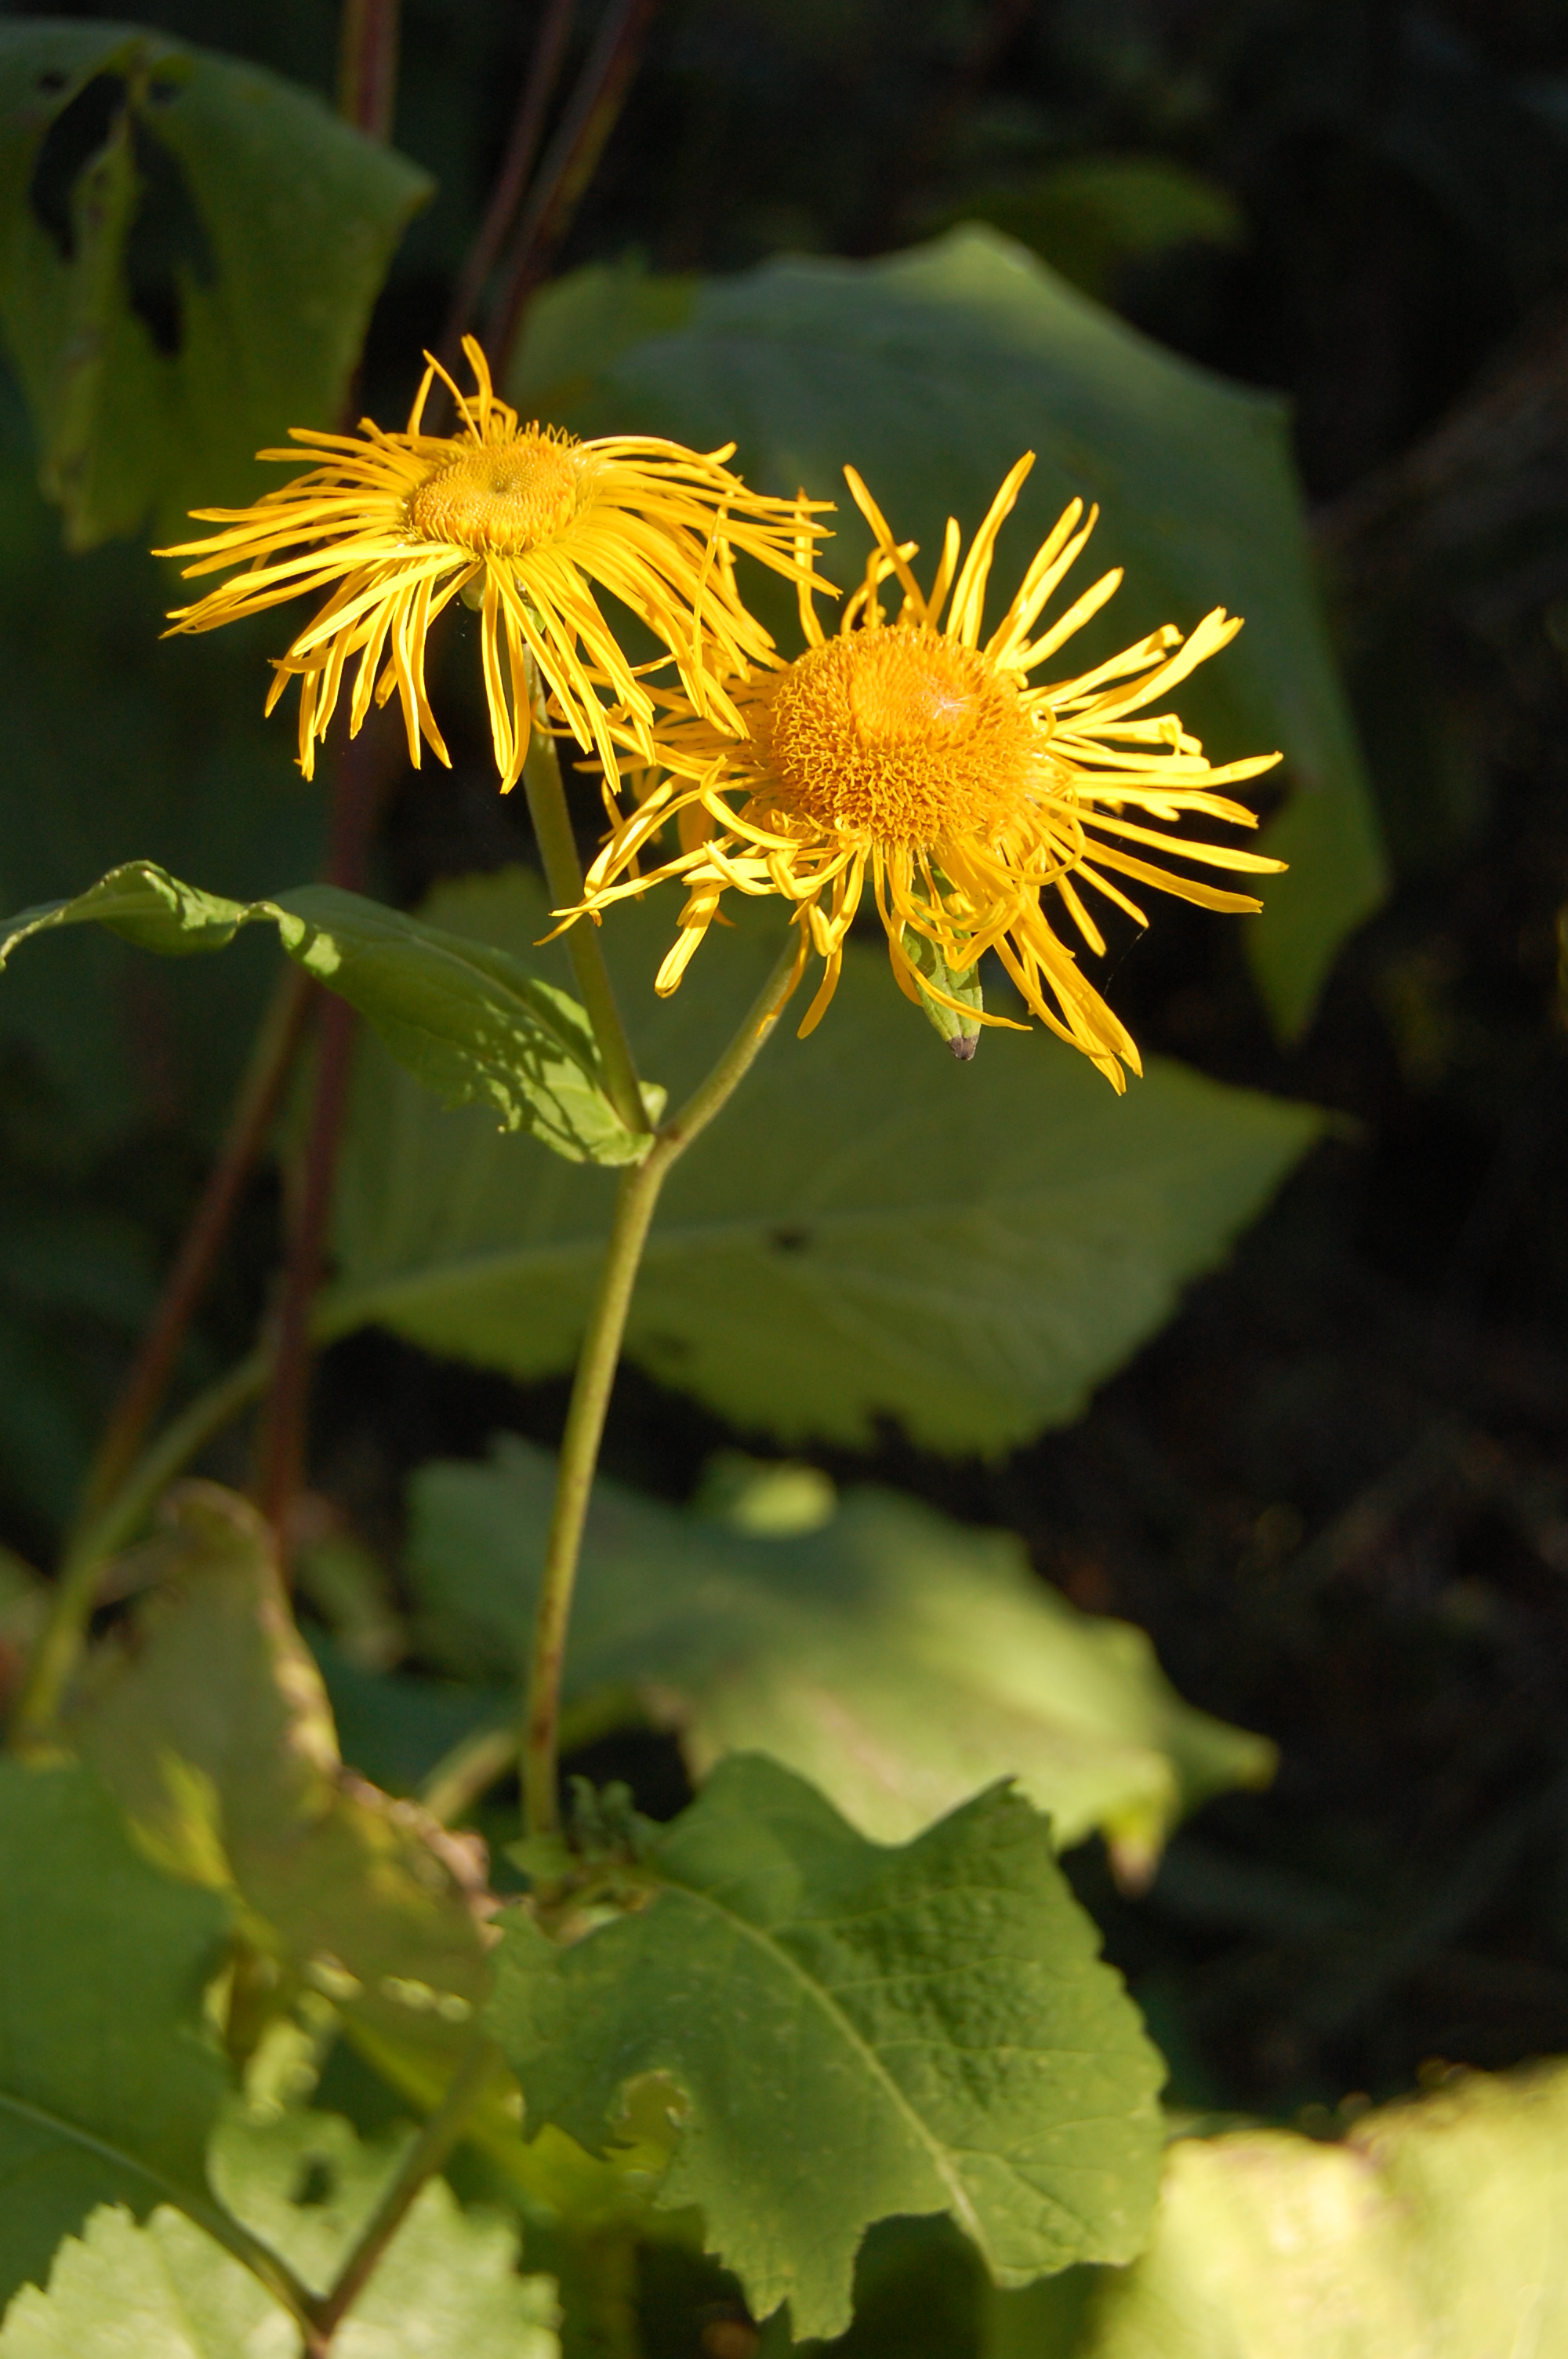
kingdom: Plantae
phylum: Tracheophyta
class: Magnoliopsida
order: Asterales
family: Asteraceae
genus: Telekia
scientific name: Telekia speciosa
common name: Yellow oxeye
